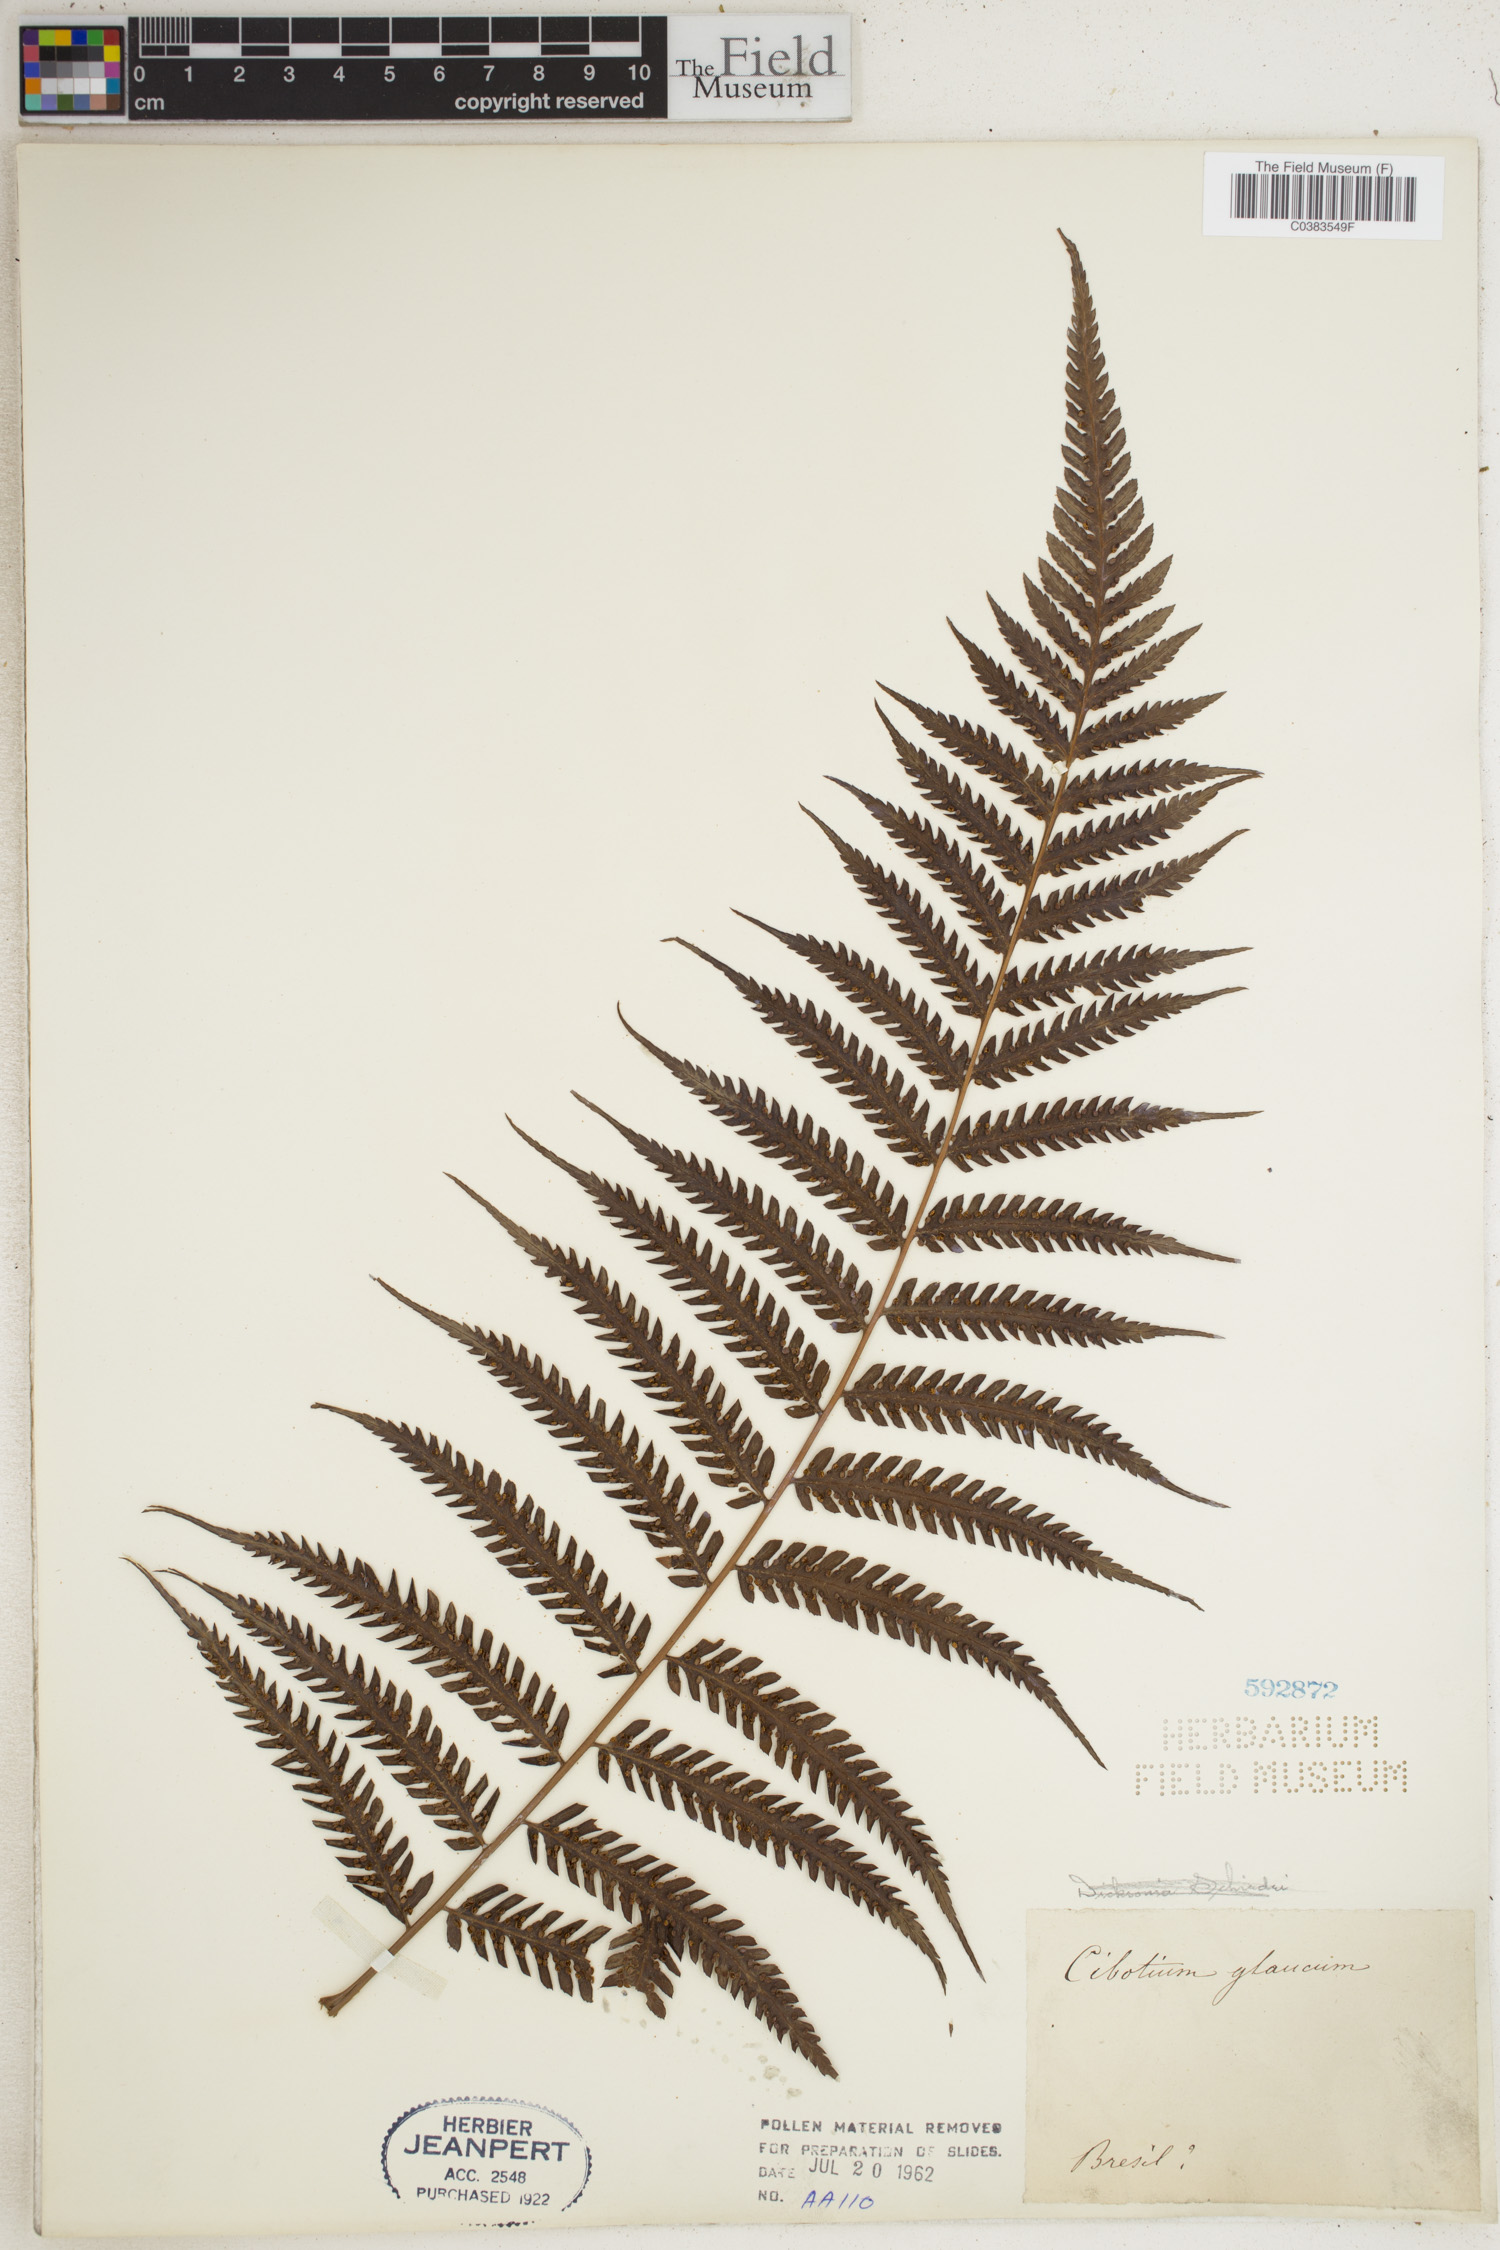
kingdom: Plantae
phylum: Tracheophyta
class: Polypodiopsida
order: Cyatheales
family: Cibotiaceae
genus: Cibotium
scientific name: Cibotium regale
